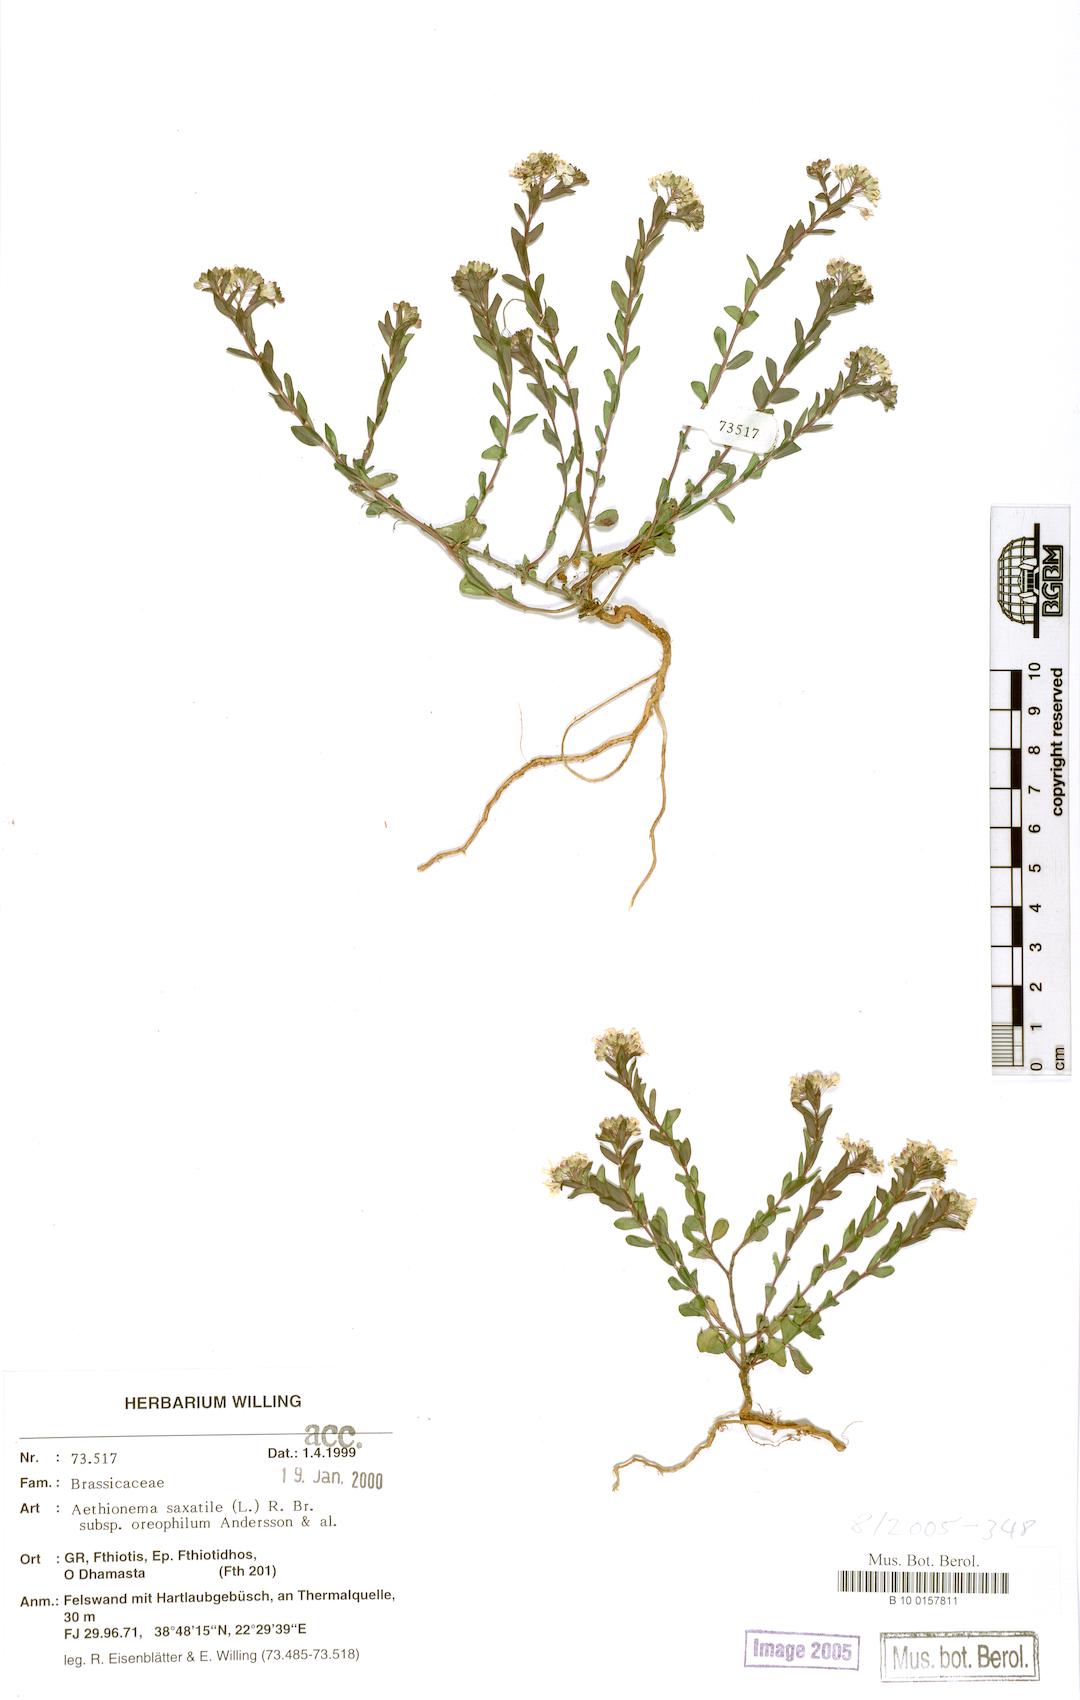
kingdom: Plantae
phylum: Tracheophyta
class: Magnoliopsida
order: Brassicales
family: Brassicaceae
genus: Aethionema
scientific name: Aethionema saxatile
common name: Burnt candytuft
